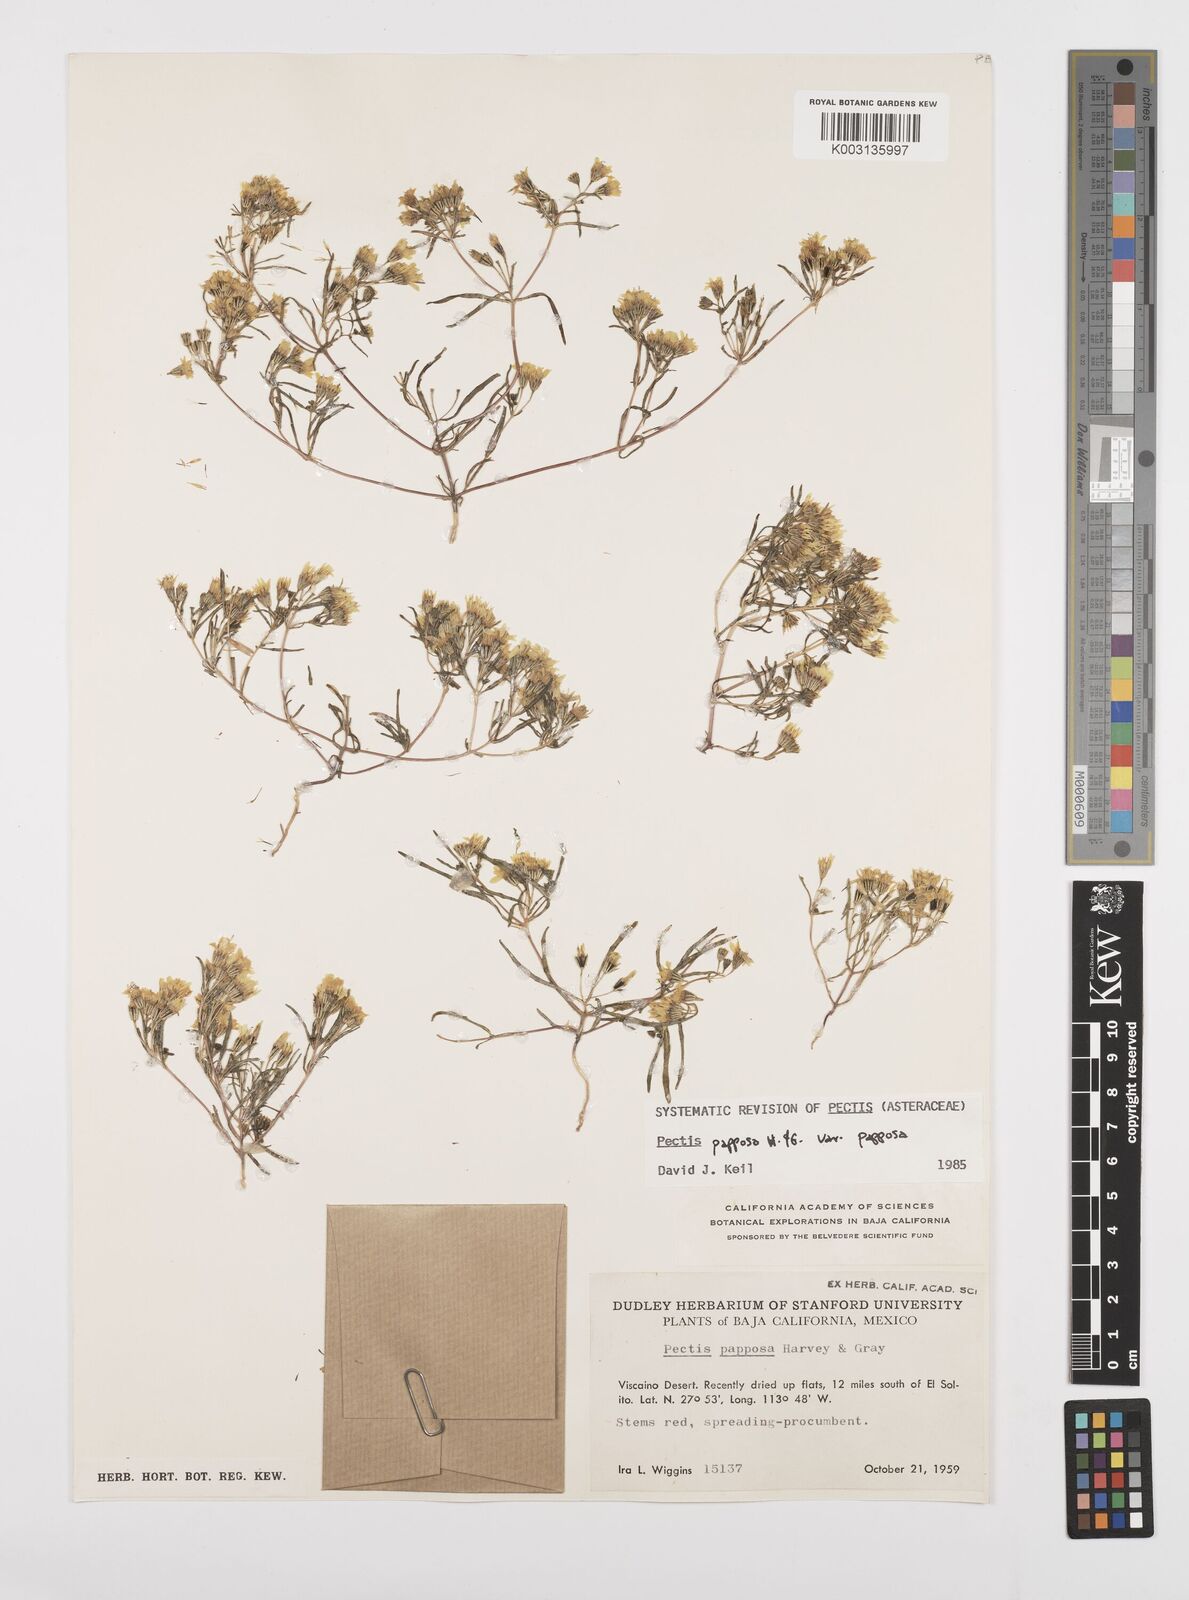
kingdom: Plantae
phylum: Tracheophyta
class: Magnoliopsida
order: Asterales
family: Asteraceae
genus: Pectis
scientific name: Pectis papposa
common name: Many-bristle chinchweed
